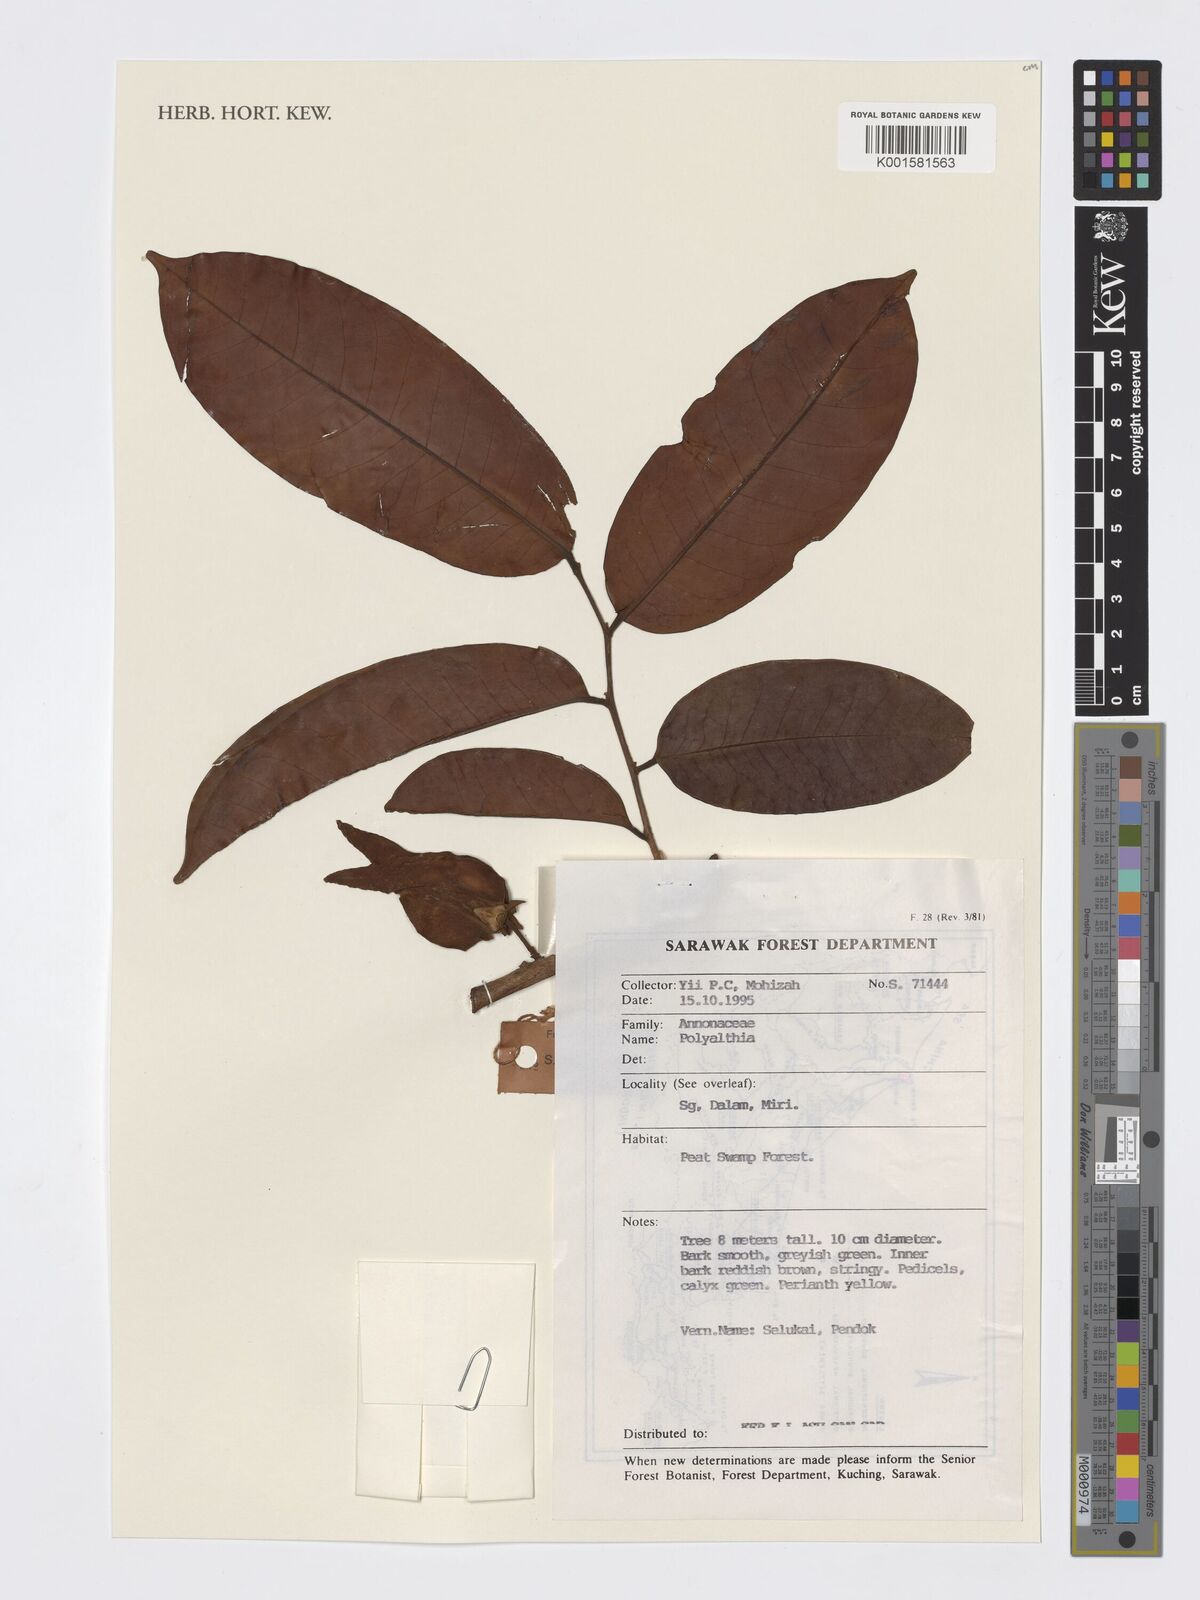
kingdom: Plantae
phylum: Tracheophyta
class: Magnoliopsida
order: Magnoliales
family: Annonaceae
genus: Polyalthia
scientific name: Polyalthia
